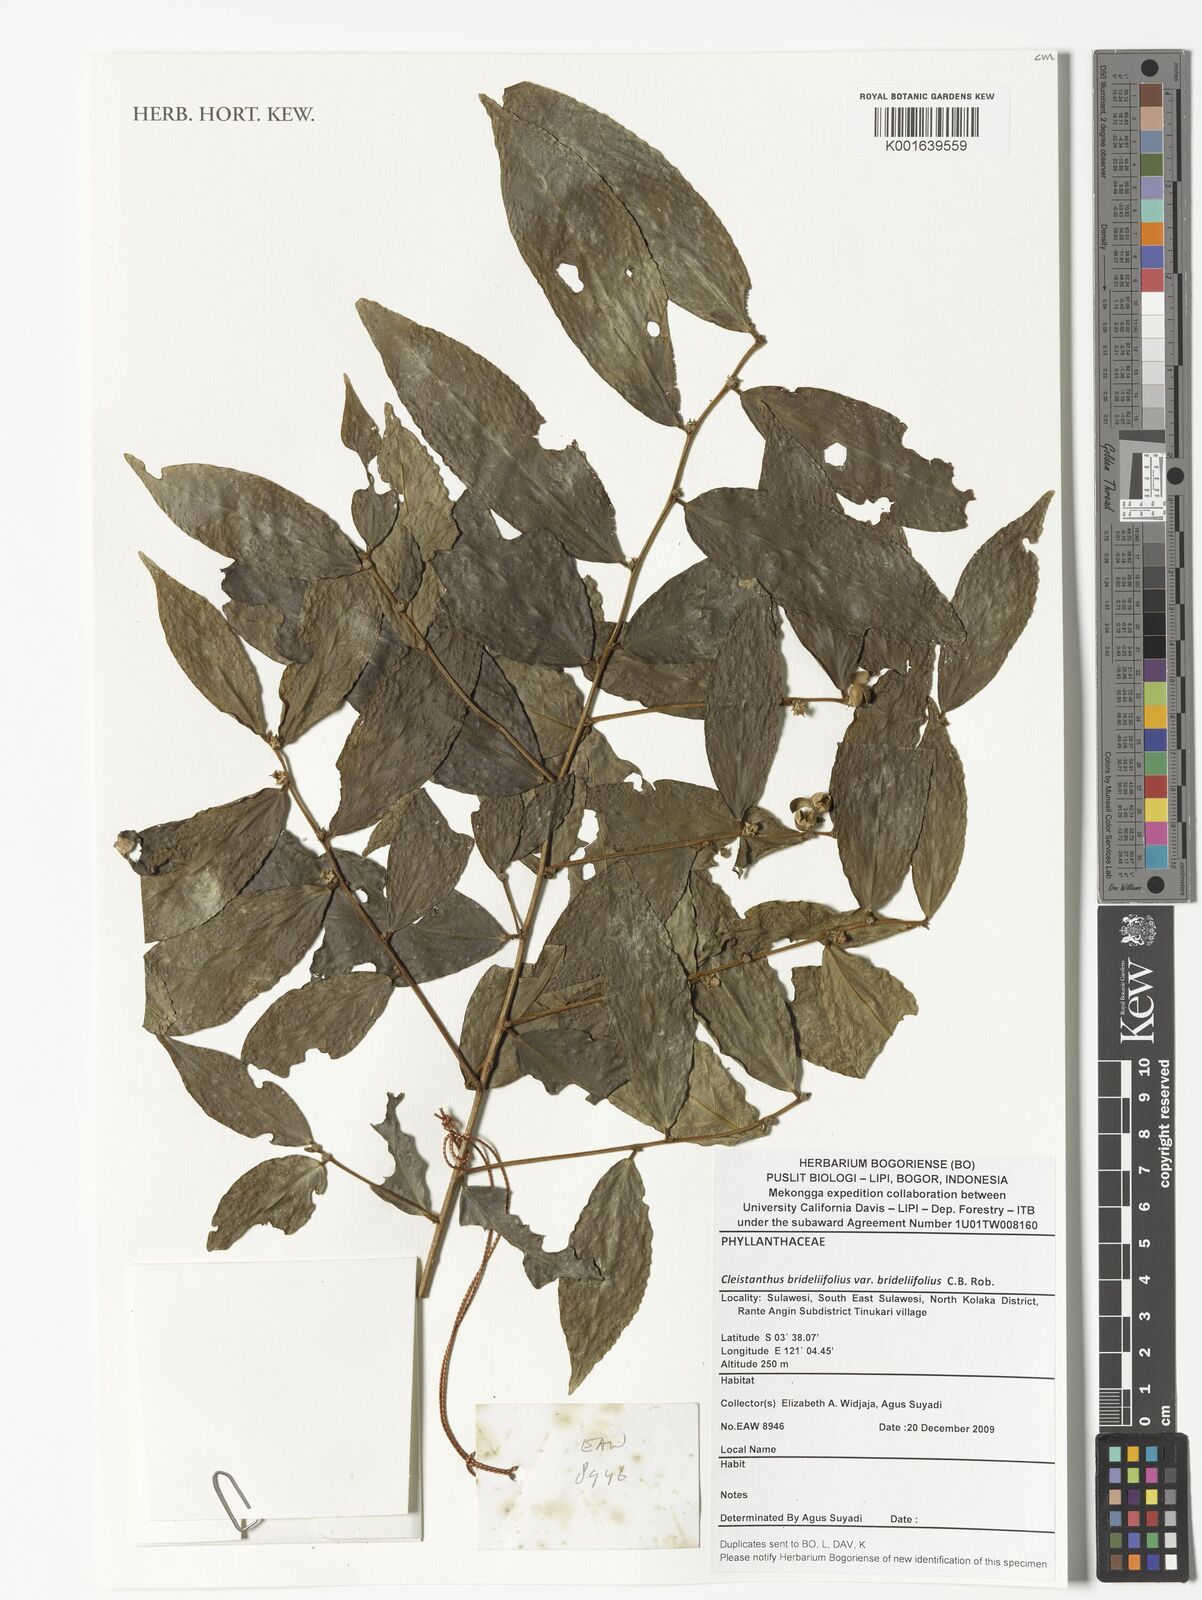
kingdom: Plantae
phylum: Tracheophyta
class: Magnoliopsida
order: Malpighiales
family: Phyllanthaceae
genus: Cleistanthus
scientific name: Cleistanthus brideliifolius
